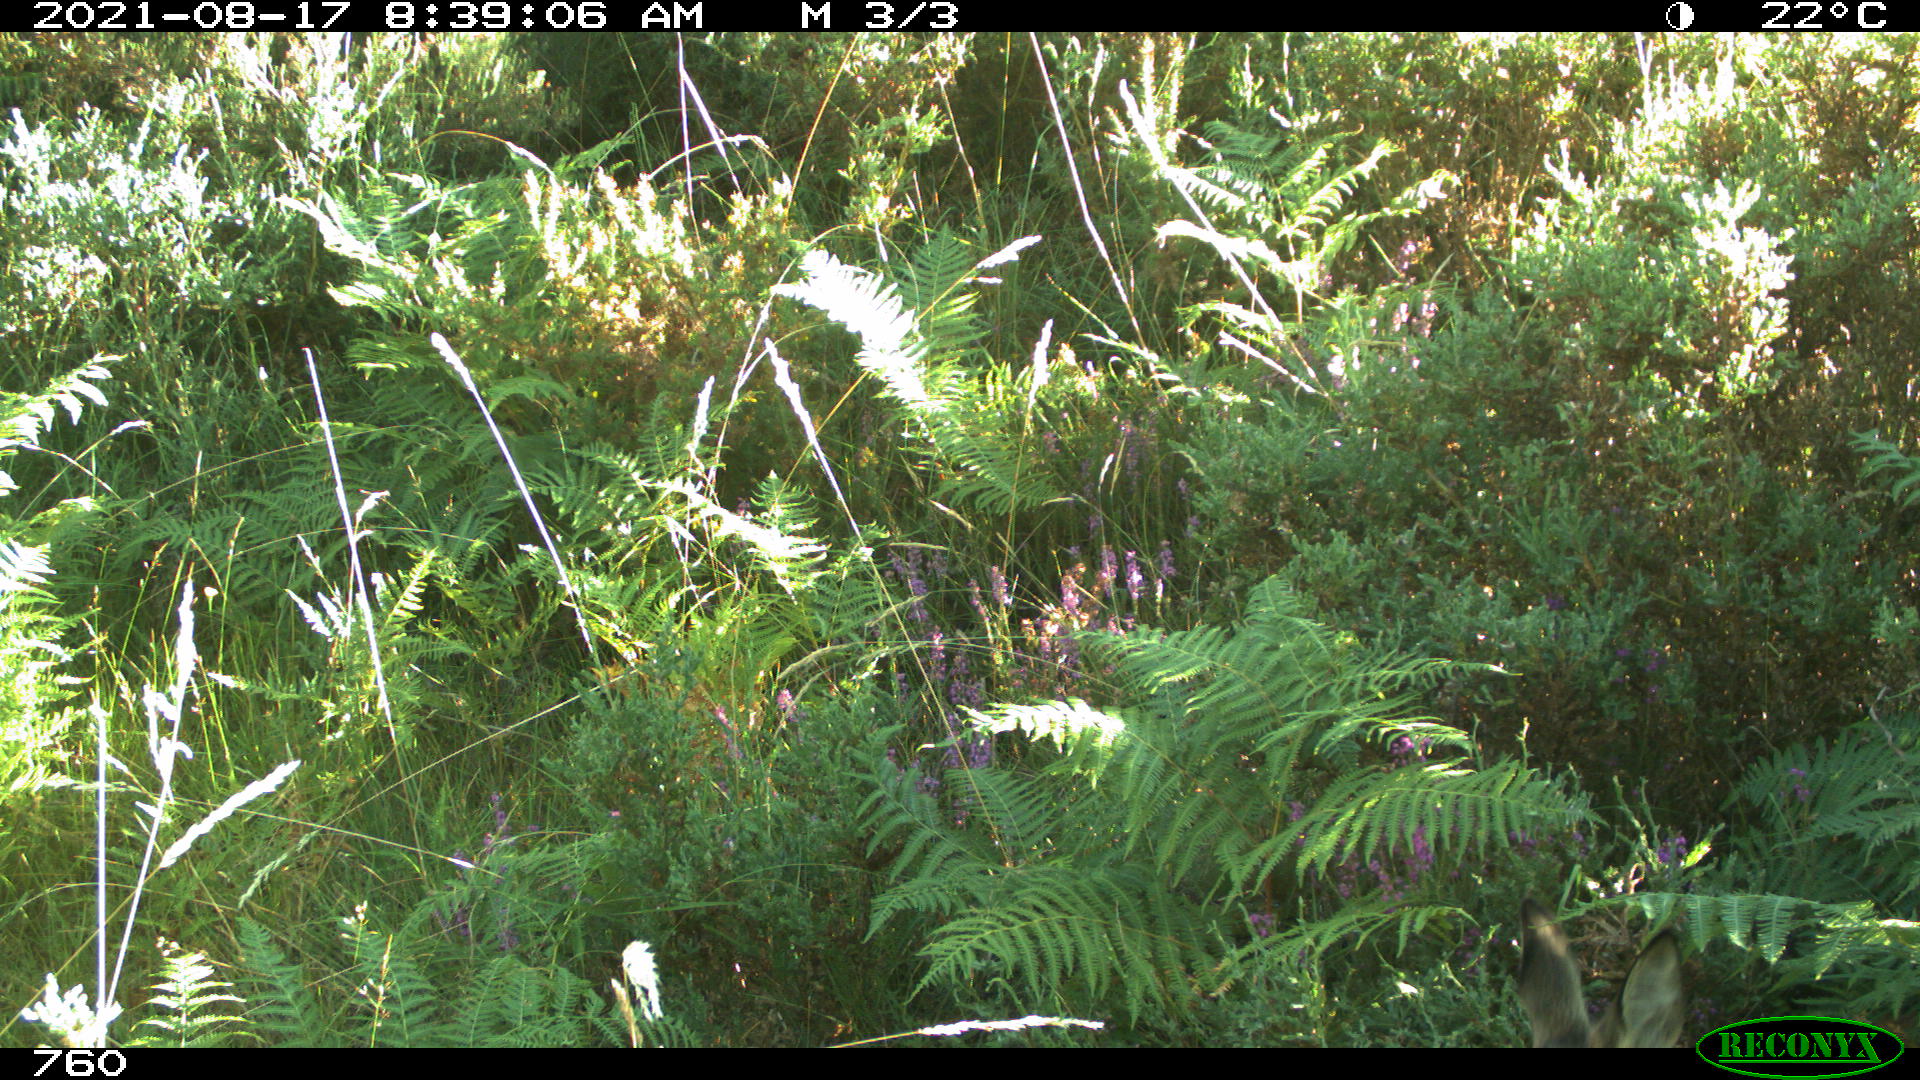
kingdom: Animalia
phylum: Chordata
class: Mammalia
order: Artiodactyla
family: Cervidae
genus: Capreolus
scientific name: Capreolus capreolus
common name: Western roe deer
